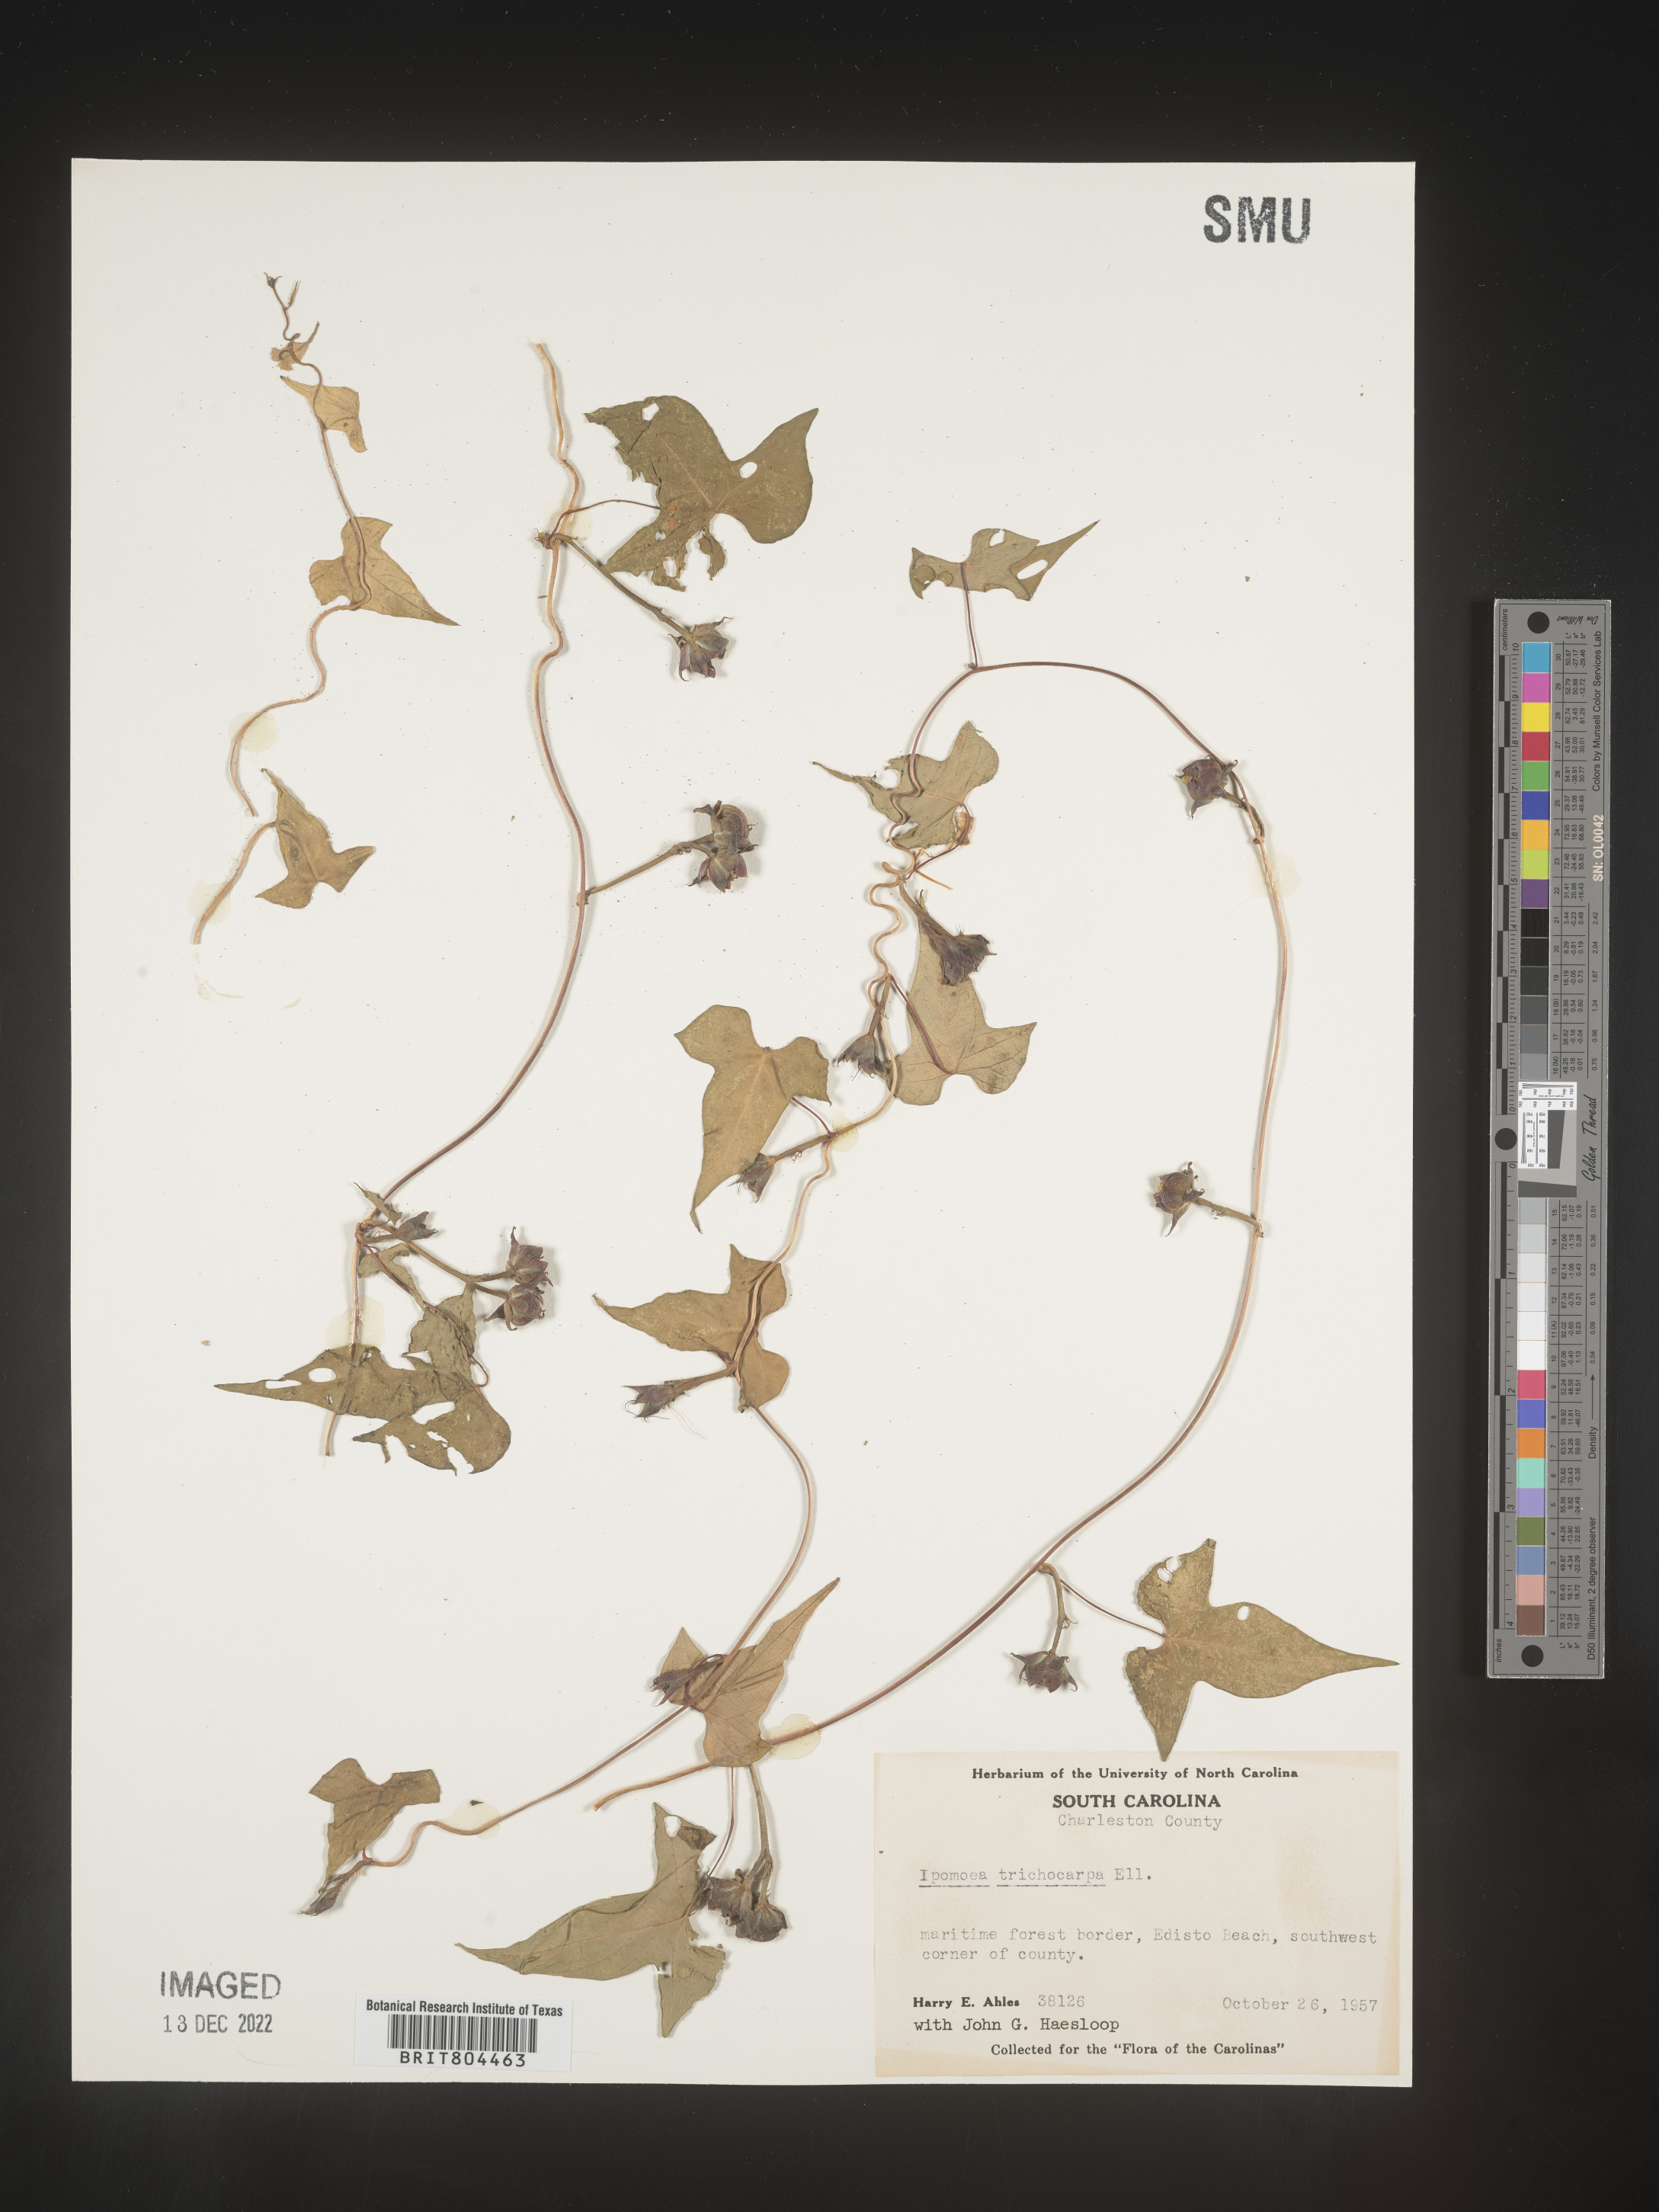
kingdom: Plantae
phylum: Tracheophyta
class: Magnoliopsida
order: Solanales
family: Convolvulaceae
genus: Ipomoea
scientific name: Ipomoea cordatotriloba
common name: Cotton morning glory
